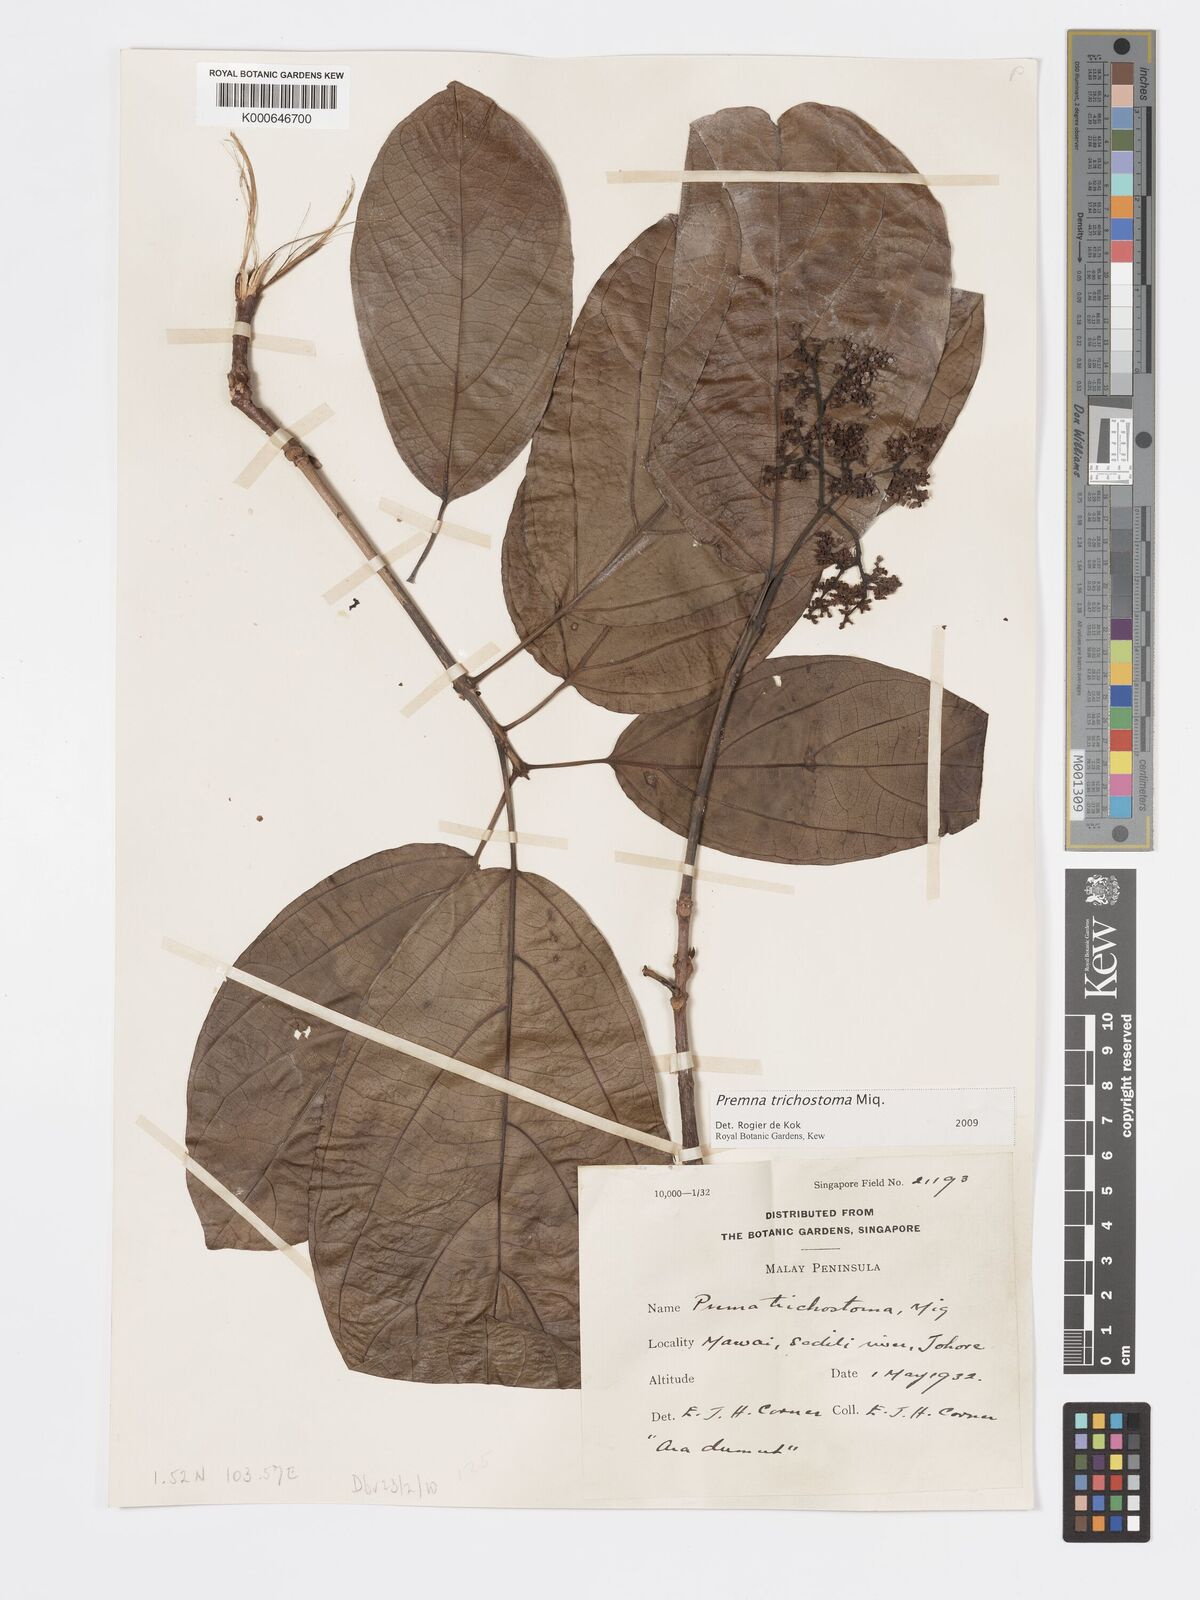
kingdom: Plantae
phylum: Tracheophyta
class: Magnoliopsida
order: Lamiales
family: Lamiaceae
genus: Premna
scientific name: Premna trichostoma
